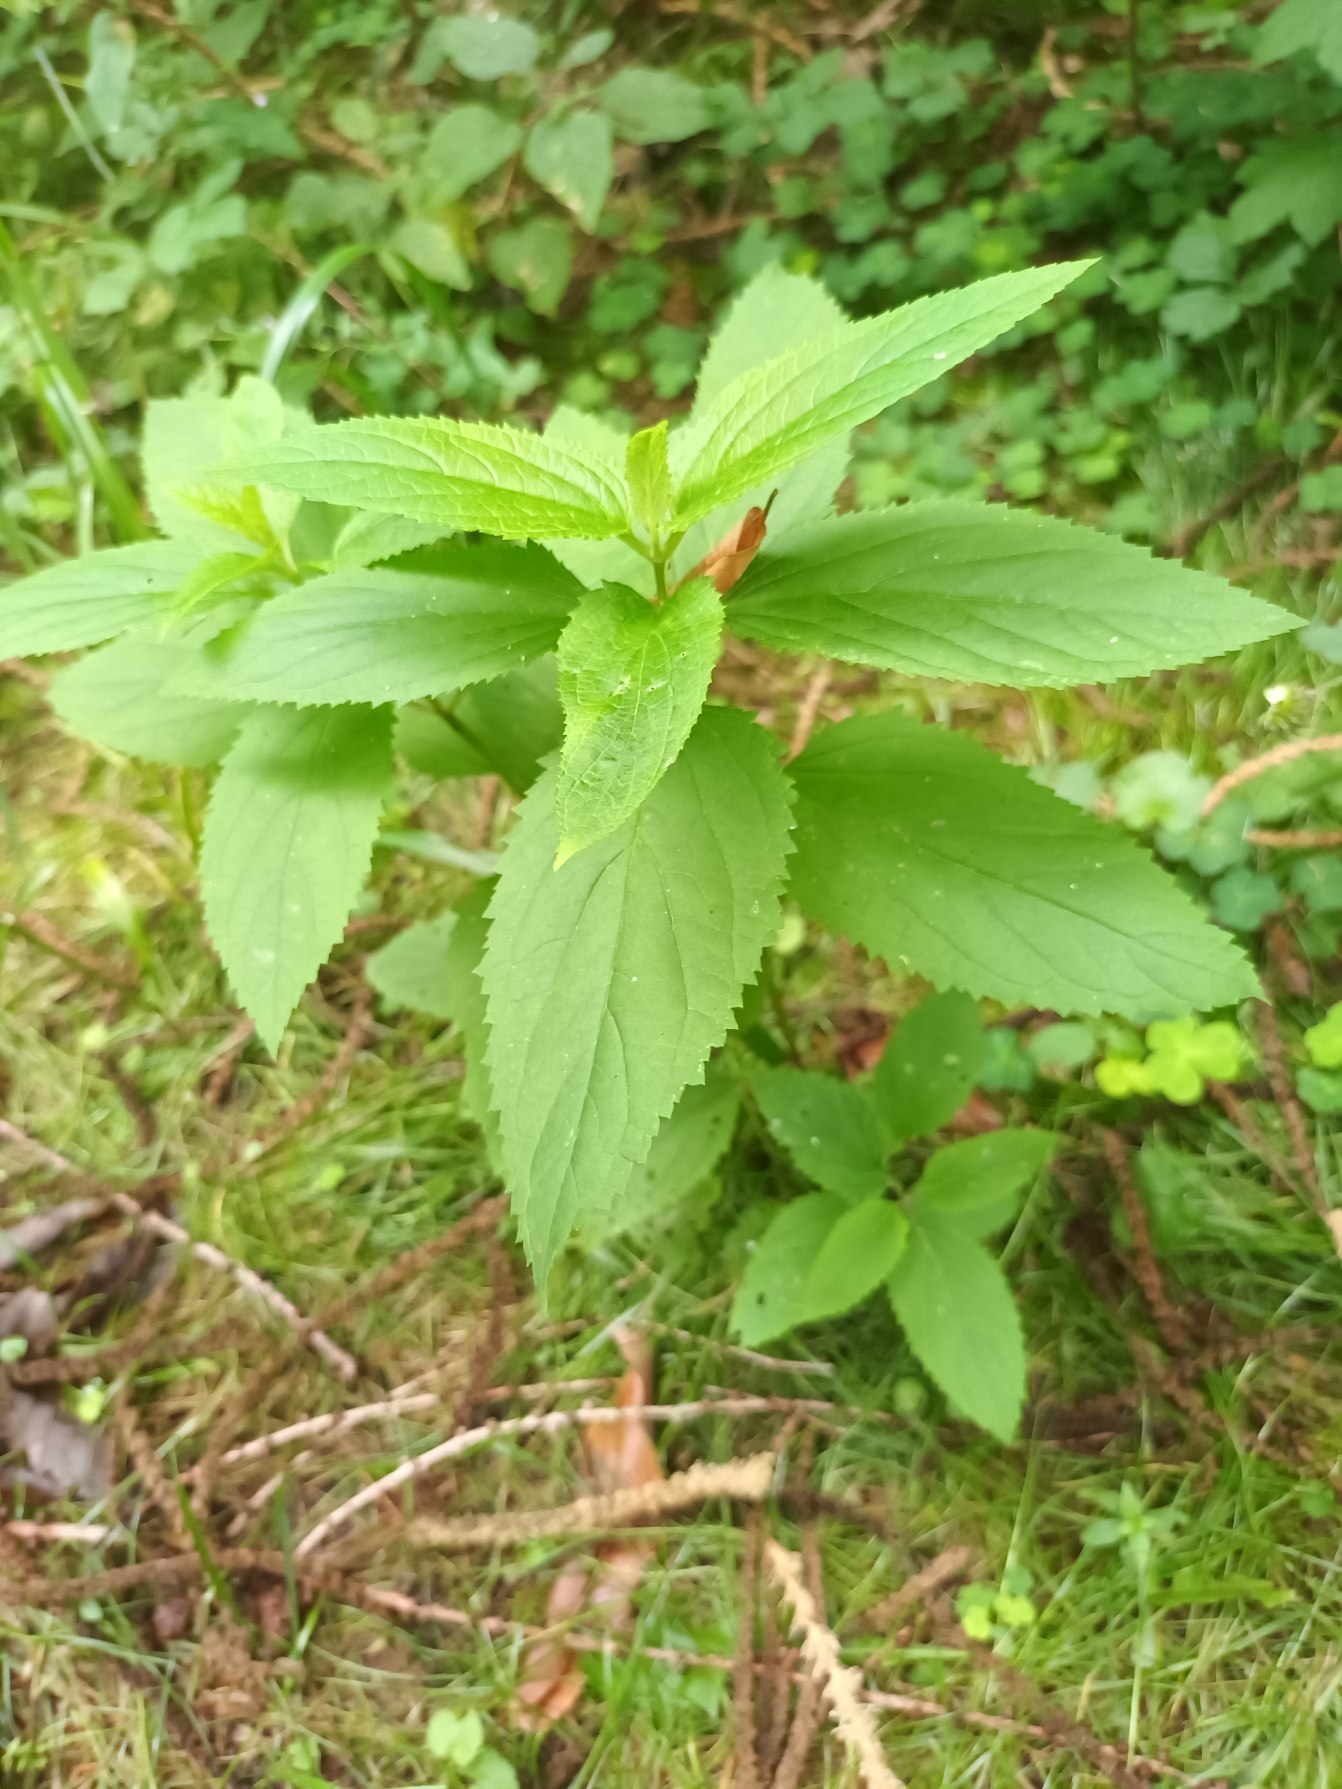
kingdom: Plantae
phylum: Tracheophyta
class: Magnoliopsida
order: Lamiales
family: Scrophulariaceae
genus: Scrophularia
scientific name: Scrophularia nodosa
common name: Knoldet brunrod
